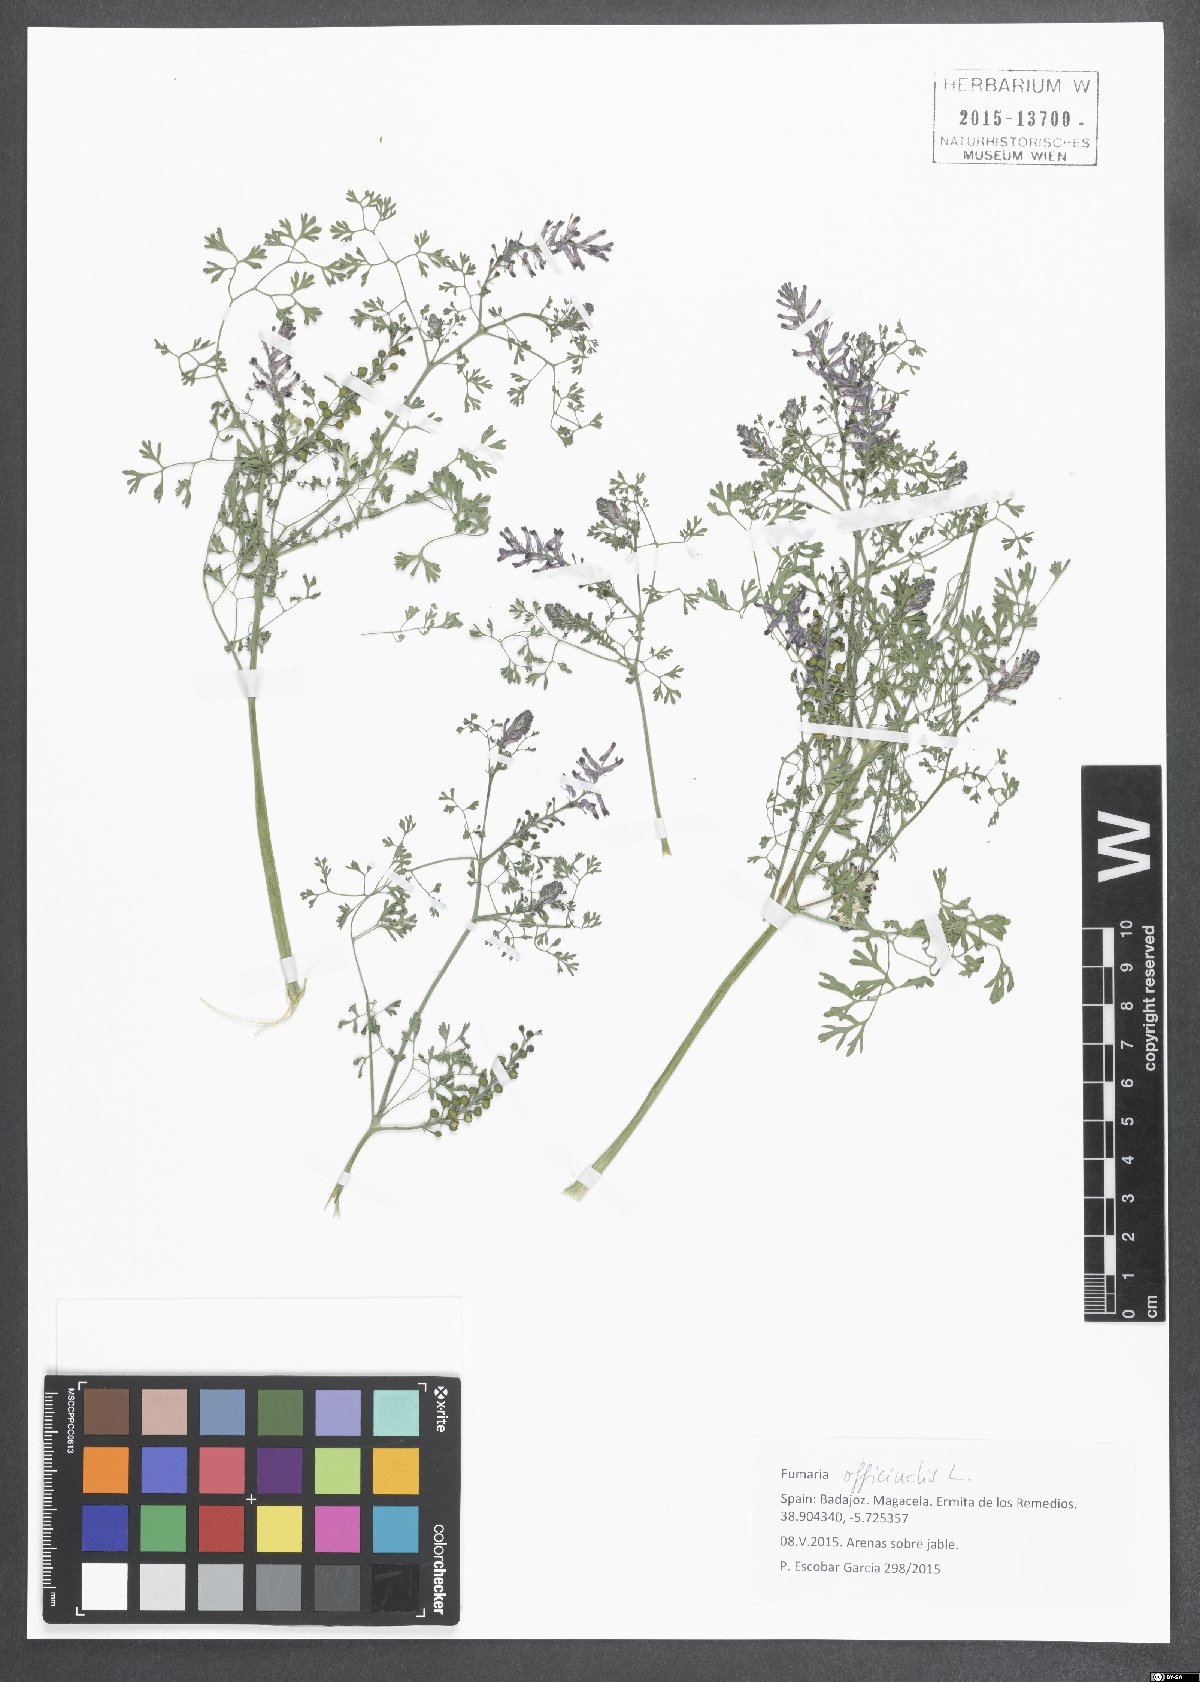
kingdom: Plantae
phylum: Tracheophyta
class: Magnoliopsida
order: Ranunculales
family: Papaveraceae
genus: Fumaria
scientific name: Fumaria officinalis
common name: Common fumitory
